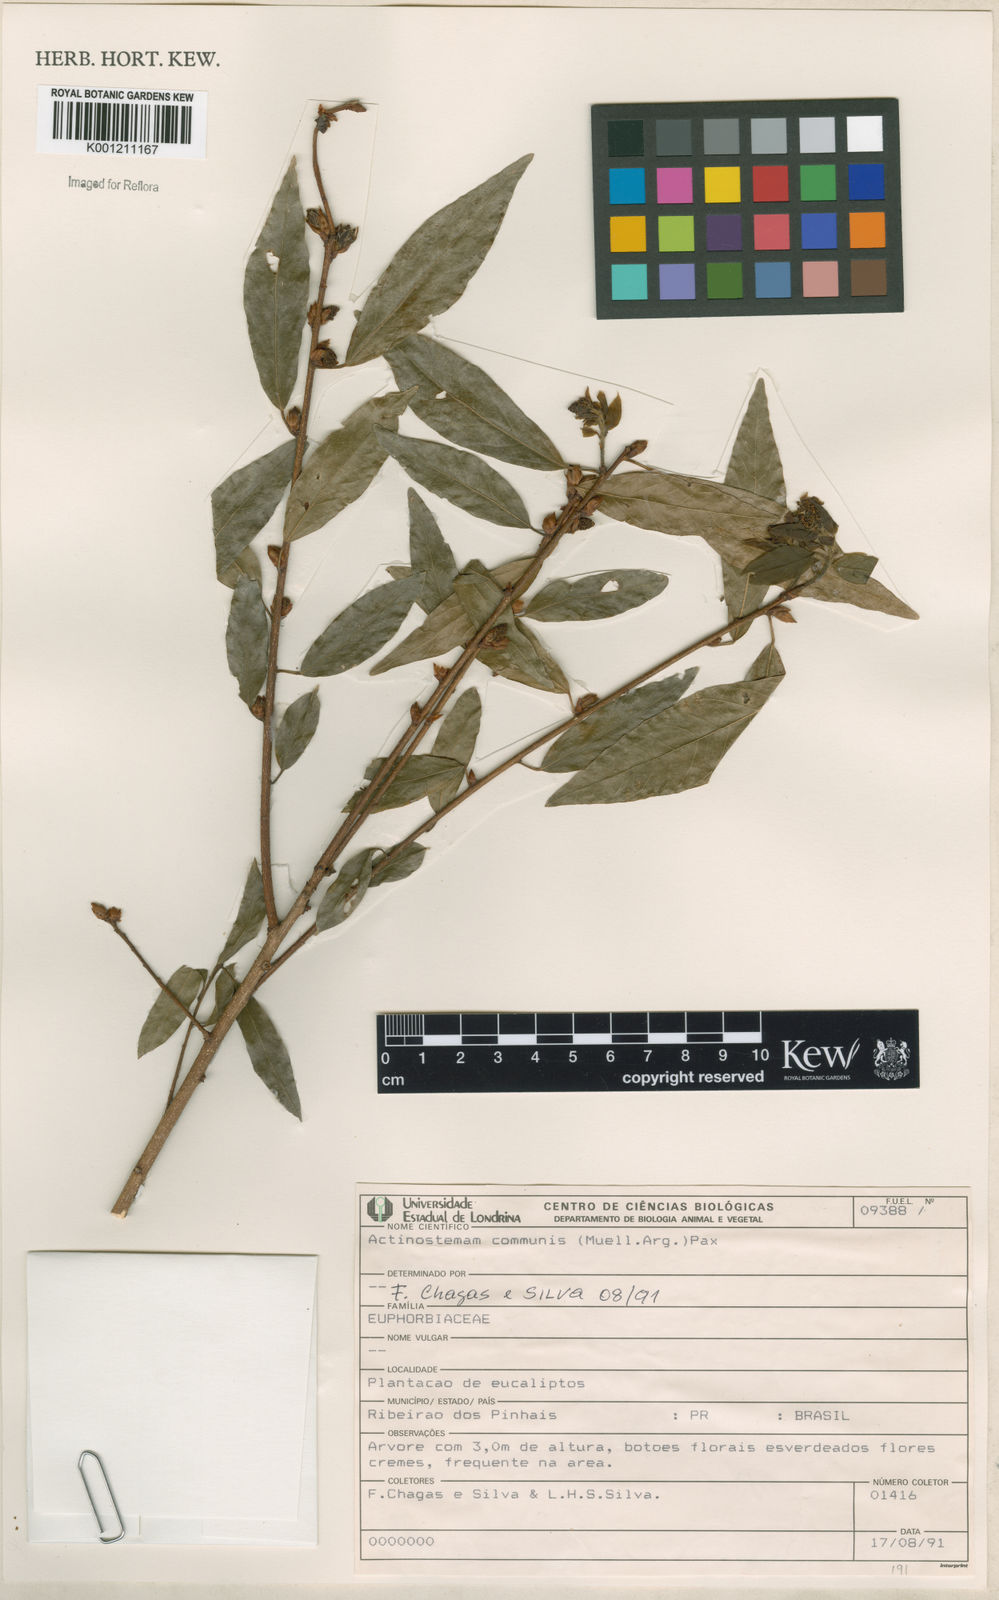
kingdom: Plantae
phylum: Tracheophyta
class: Magnoliopsida
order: Malpighiales
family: Euphorbiaceae
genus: Actinostemon
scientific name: Actinostemon klotzschii
